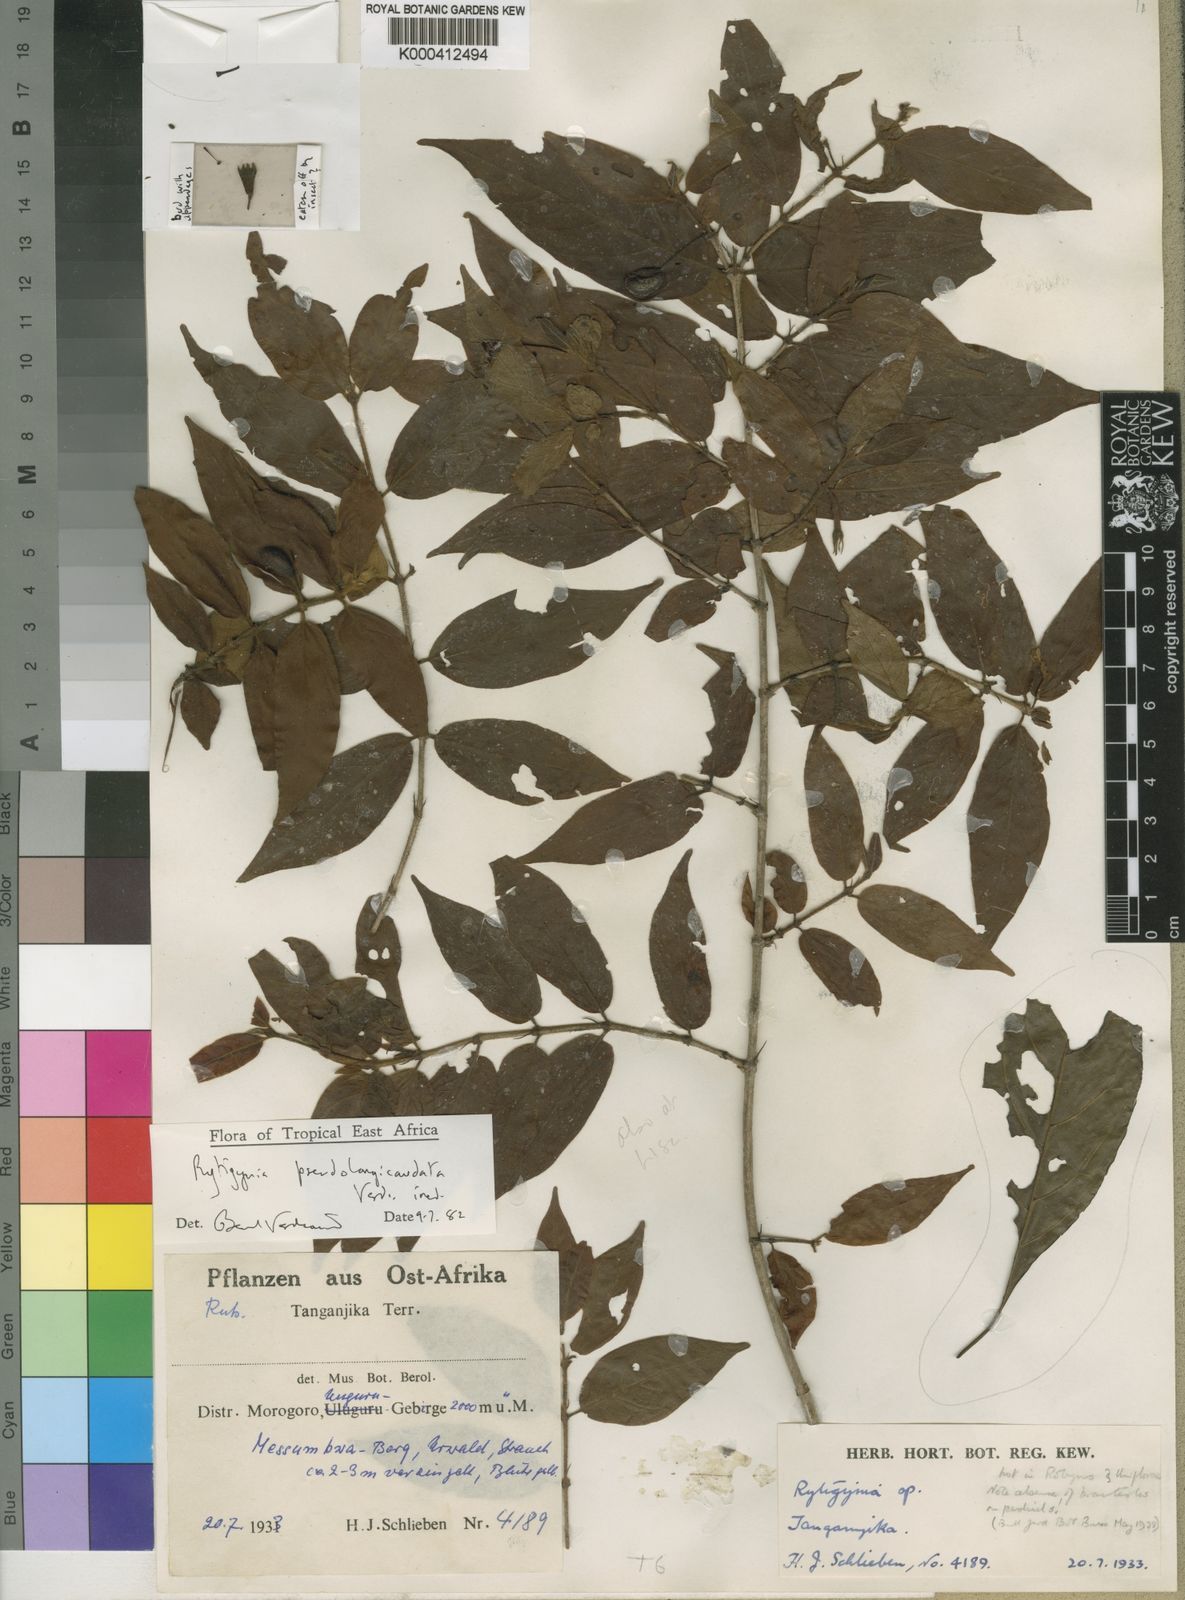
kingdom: Plantae
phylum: Tracheophyta
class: Magnoliopsida
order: Gentianales
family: Rubiaceae
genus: Rytigynia
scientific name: Rytigynia pseudolongicaudata
